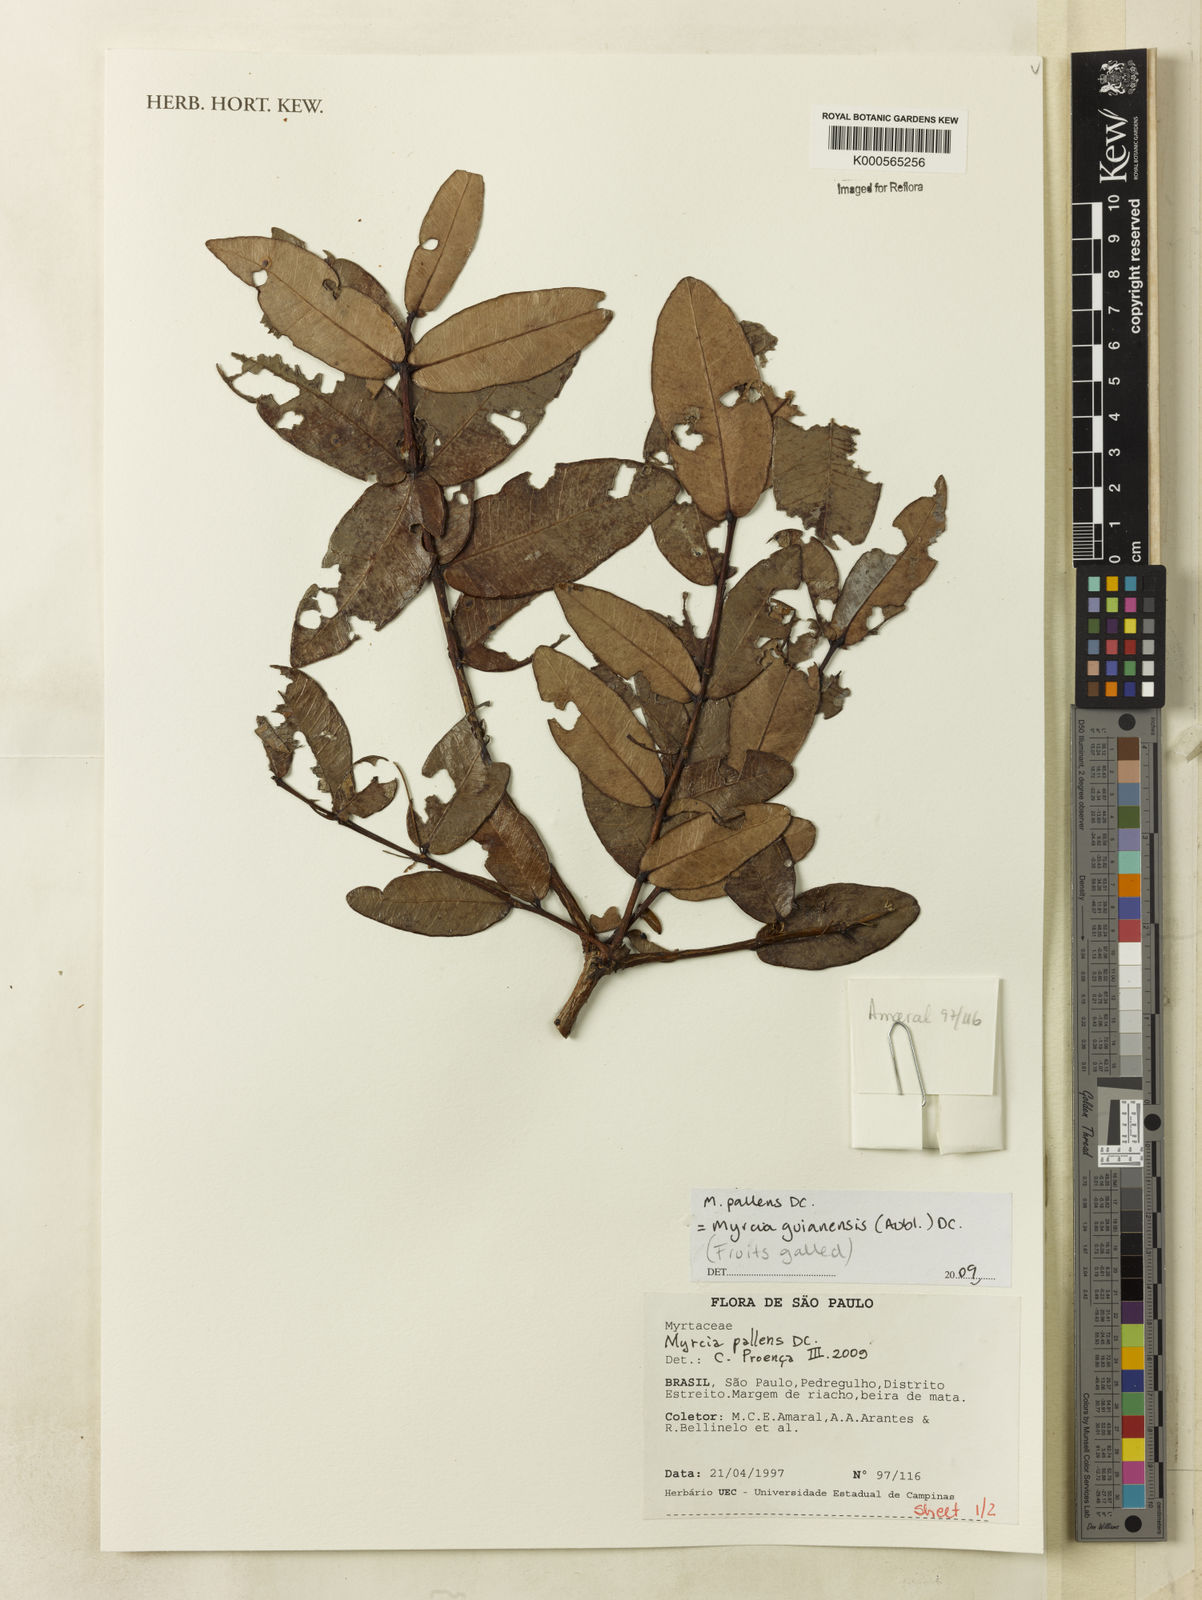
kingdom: Plantae
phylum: Tracheophyta
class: Magnoliopsida
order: Myrtales
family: Myrtaceae
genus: Myrcia
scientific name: Myrcia guianensis
